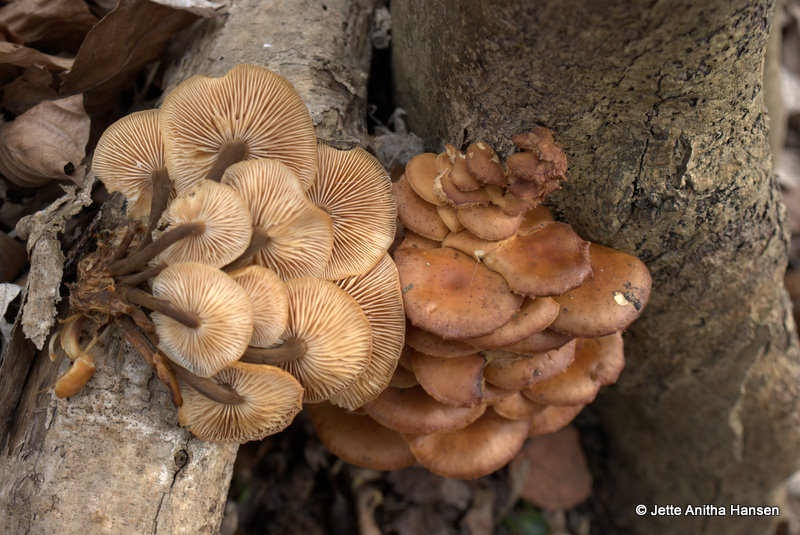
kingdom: Fungi
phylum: Basidiomycota
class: Agaricomycetes
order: Agaricales
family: Physalacriaceae
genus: Flammulina
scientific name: Flammulina velutipes
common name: gul fløjlsfod
